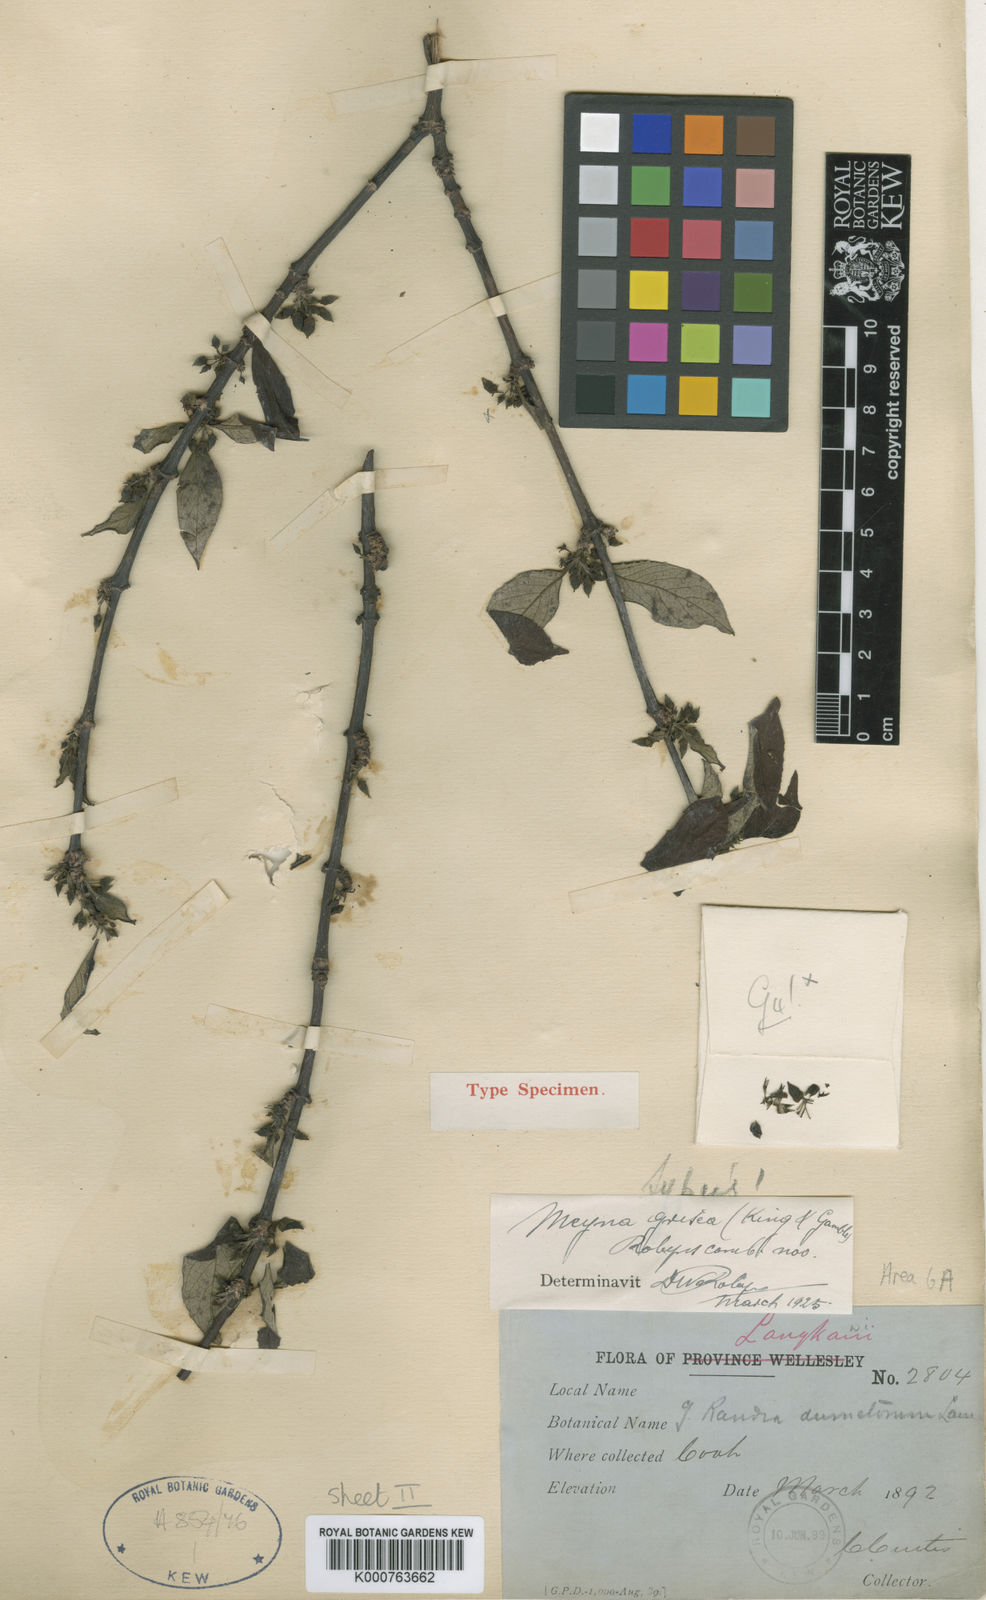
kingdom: Plantae
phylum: Tracheophyta
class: Magnoliopsida
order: Gentianales
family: Rubiaceae
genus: Meyna
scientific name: Meyna grisea
